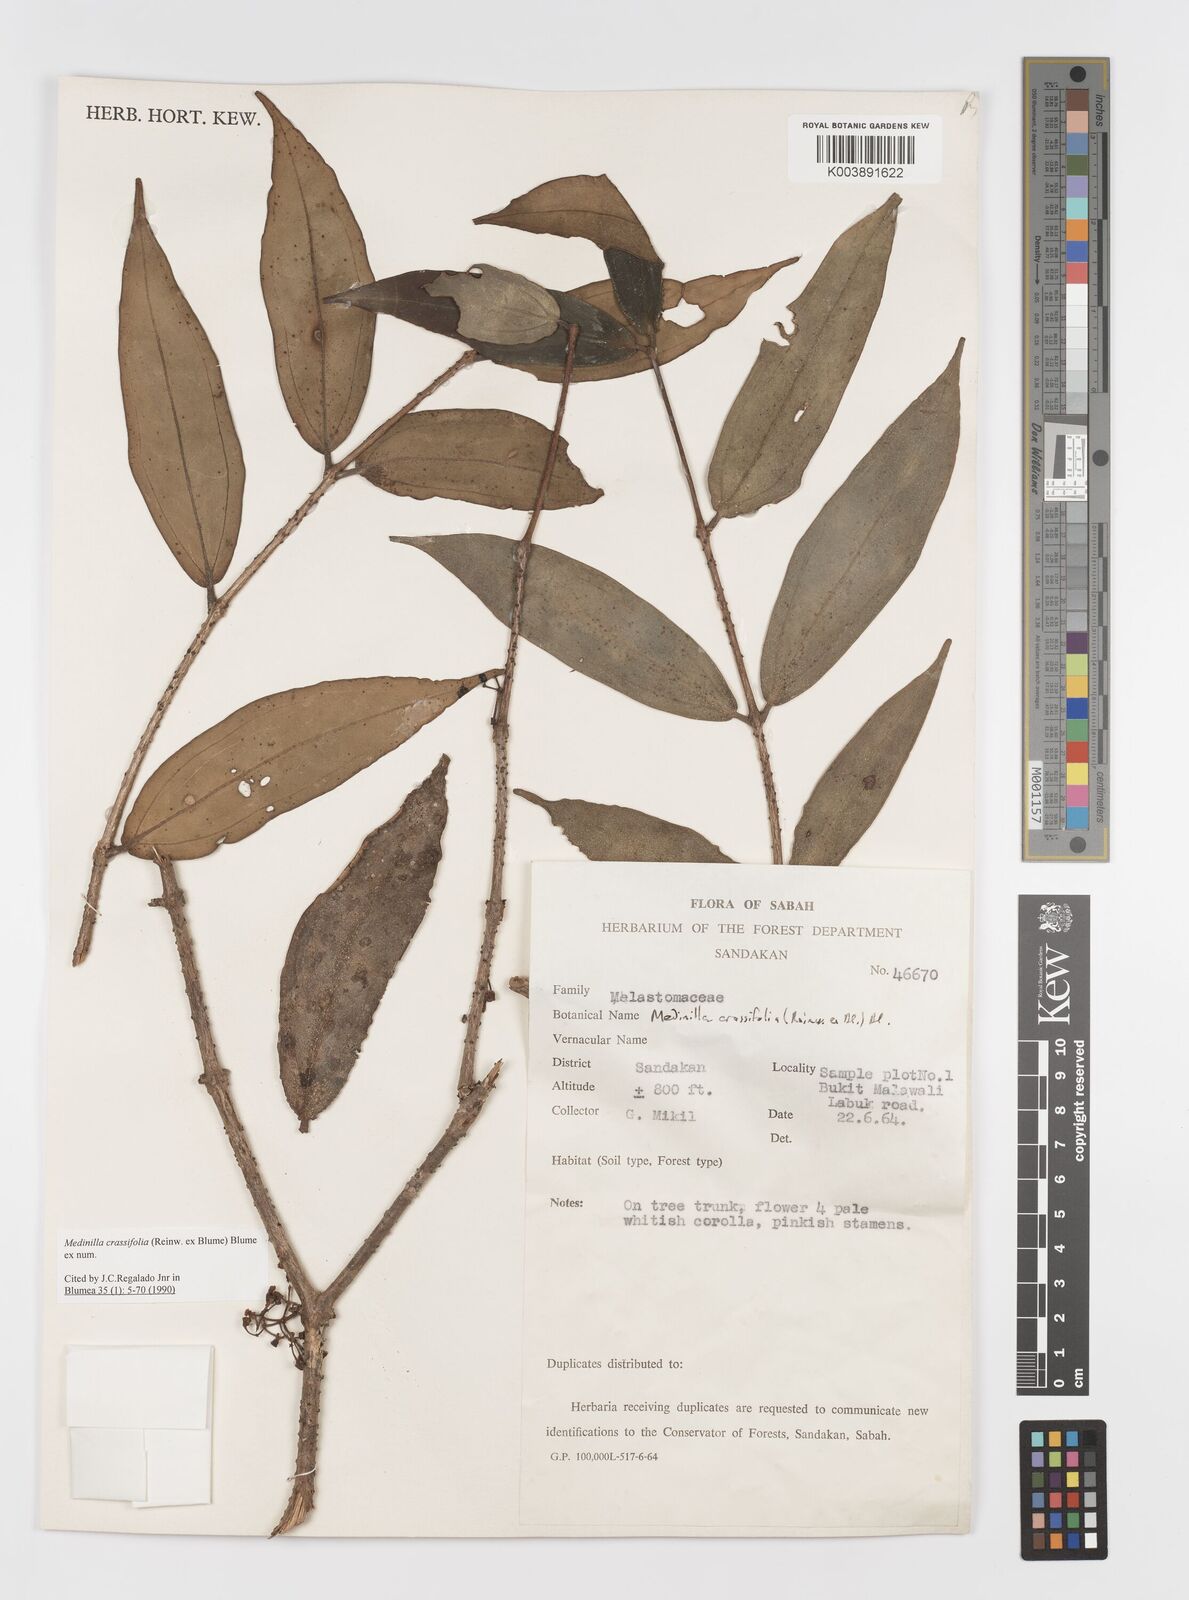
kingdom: Plantae
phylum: Tracheophyta
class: Magnoliopsida
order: Myrtales
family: Melastomataceae
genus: Medinilla
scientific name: Medinilla crassifolia
